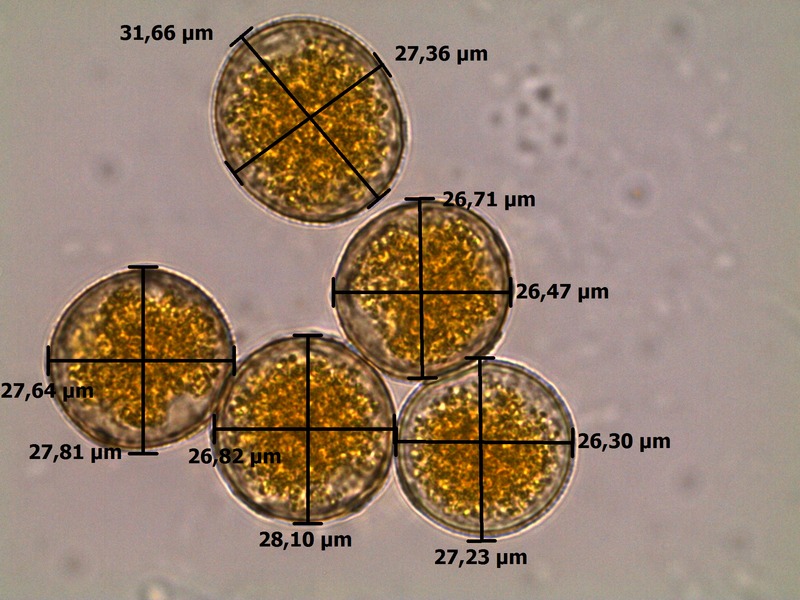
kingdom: Fungi
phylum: Ascomycota
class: Leotiomycetes
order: Helotiales
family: Erysiphaceae
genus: Blumeria
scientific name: Blumeria graminis
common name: Grass and cereal powdery mildew
